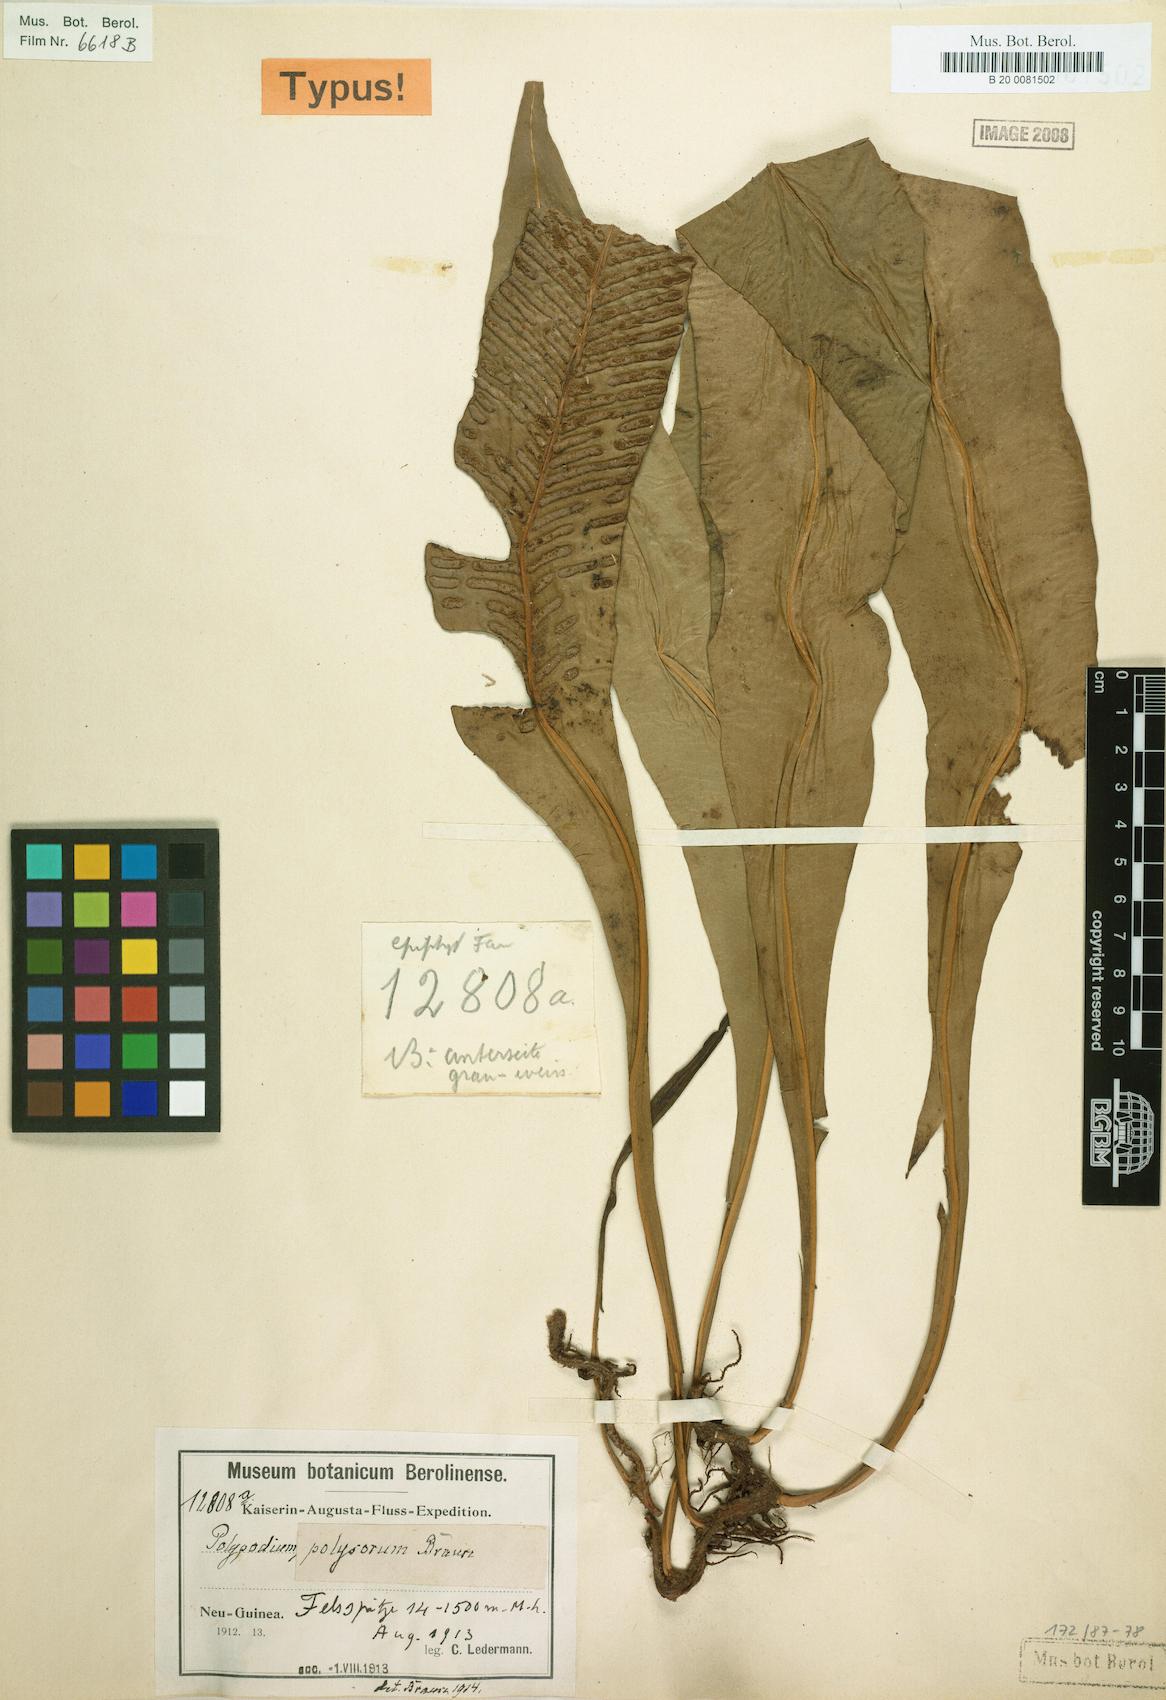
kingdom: Plantae
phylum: Tracheophyta
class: Polypodiopsida
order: Polypodiales
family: Polypodiaceae
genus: Leptochilus
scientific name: Leptochilus macrophyllus
